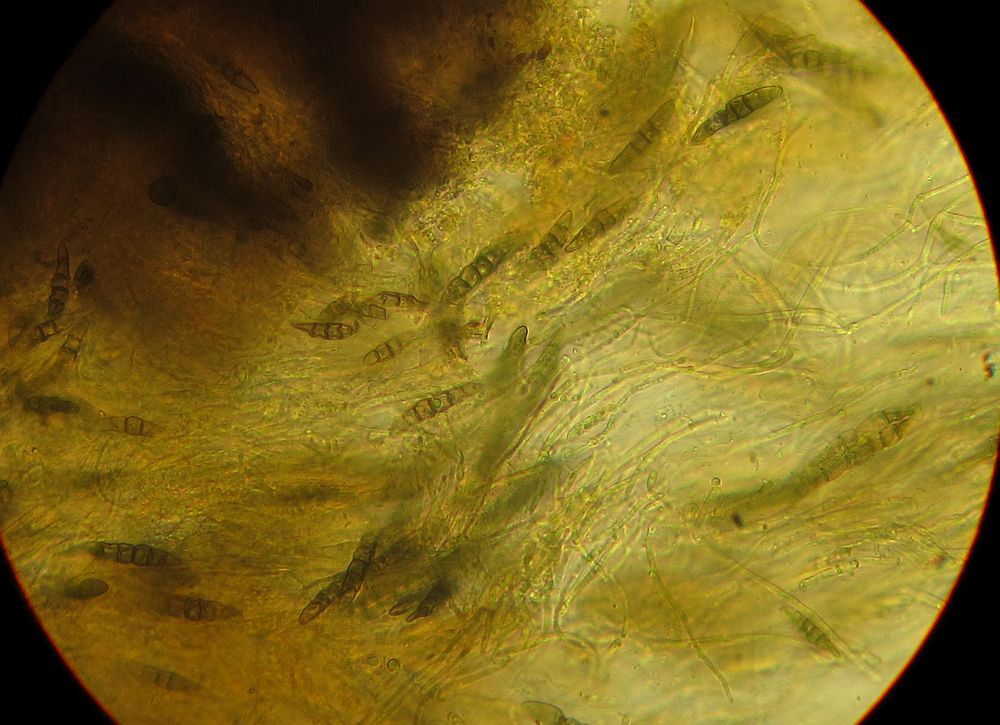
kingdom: Fungi
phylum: Ascomycota
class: Dothideomycetes
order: Pleosporales
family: Lophiostomataceae
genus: Sigarispora
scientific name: Sigarispora caulium
